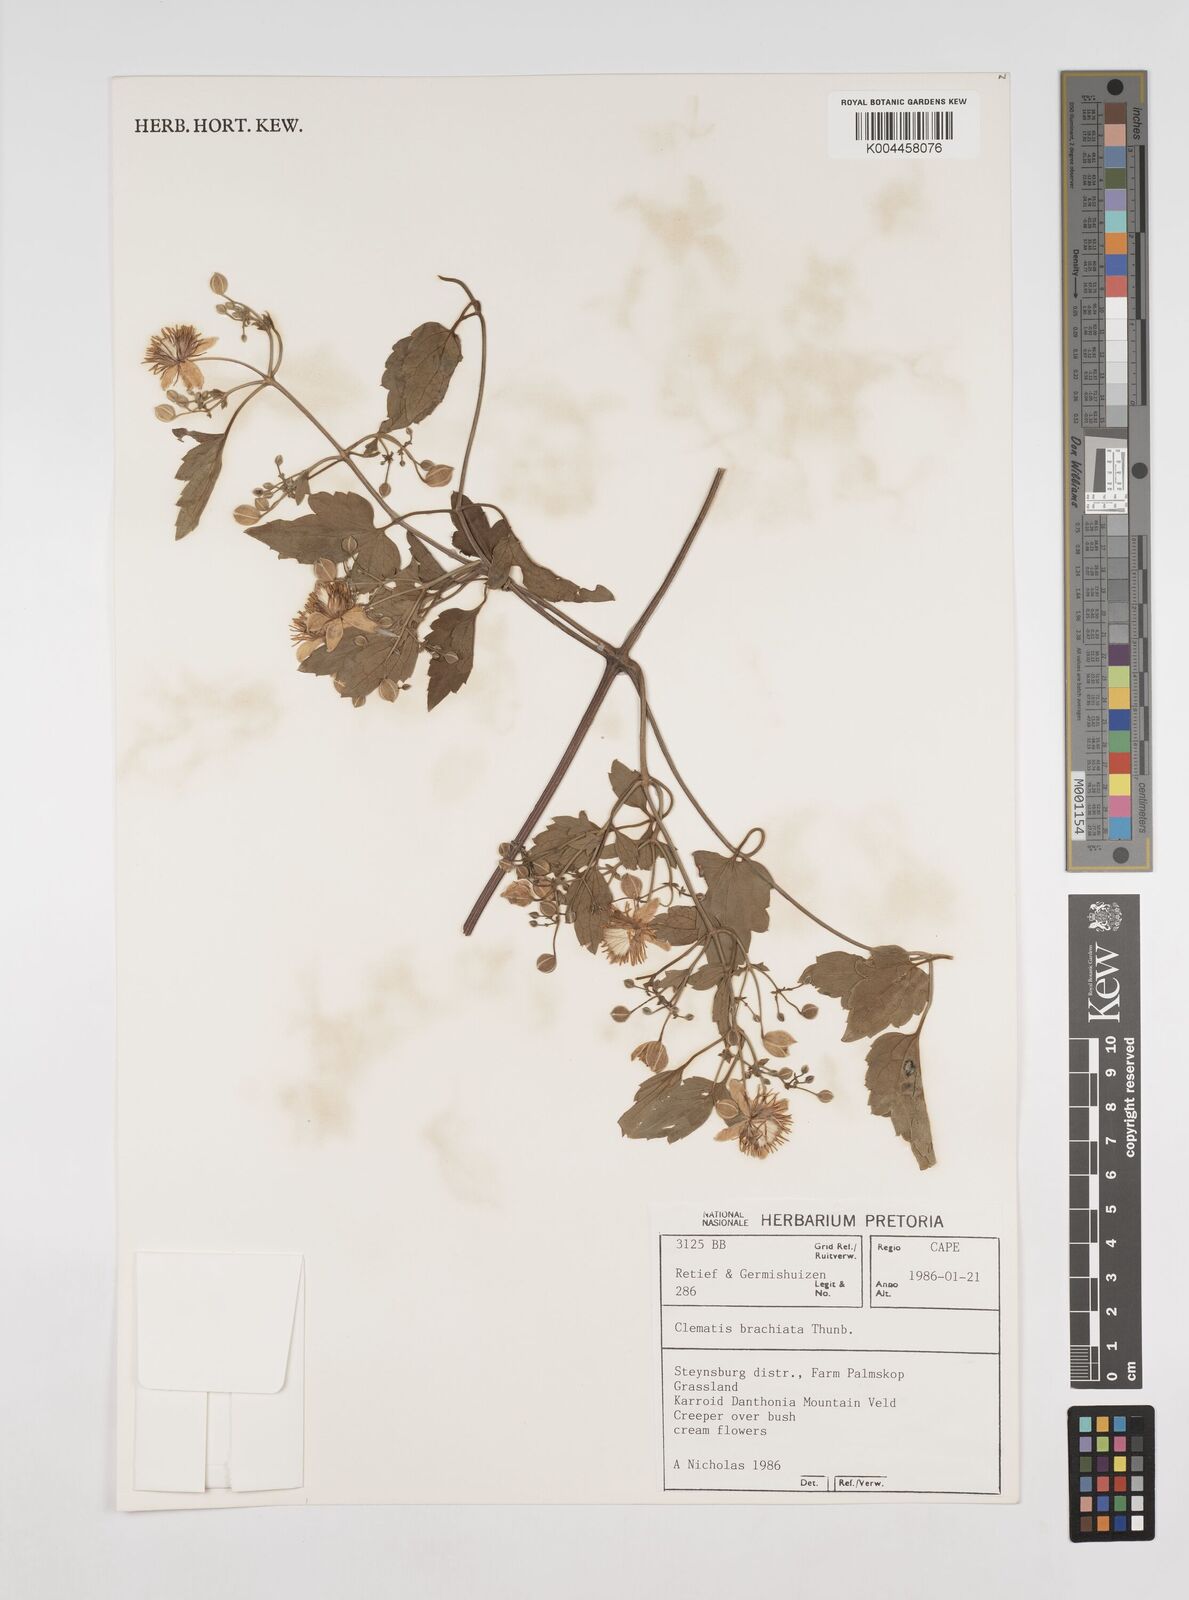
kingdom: Plantae
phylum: Tracheophyta
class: Magnoliopsida
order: Ranunculales
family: Ranunculaceae
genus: Clematis
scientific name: Clematis brachiata
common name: Traveler's-joy
